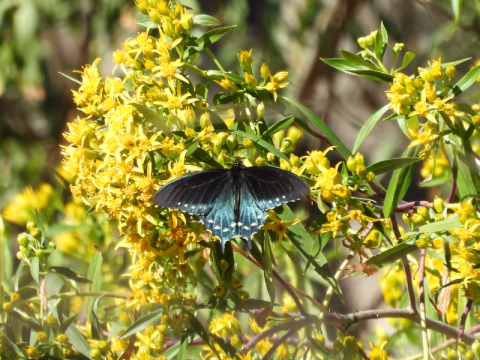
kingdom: Animalia
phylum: Arthropoda
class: Insecta
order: Lepidoptera
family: Papilionidae
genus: Battus
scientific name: Battus philenor
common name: Pipevine Swallowtail
